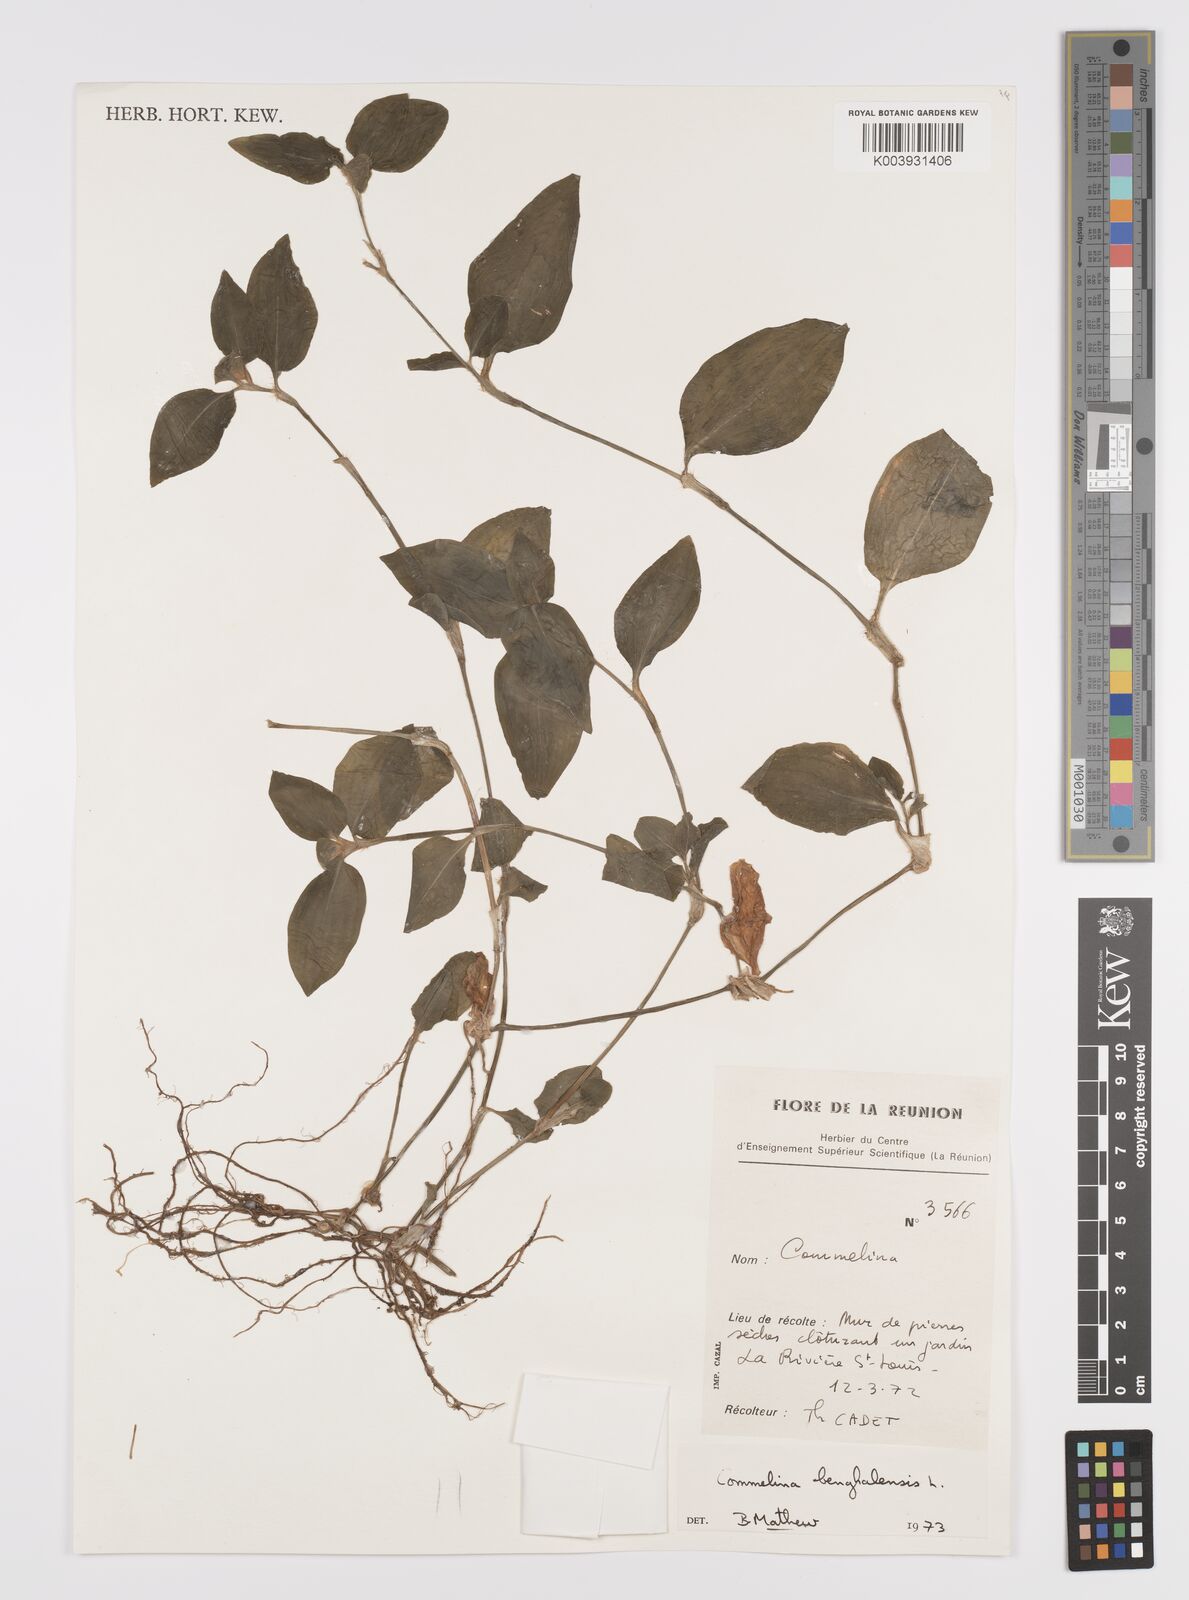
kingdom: Plantae
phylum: Tracheophyta
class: Liliopsida
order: Commelinales
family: Commelinaceae
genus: Commelina
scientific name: Commelina benghalensis
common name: Jio
